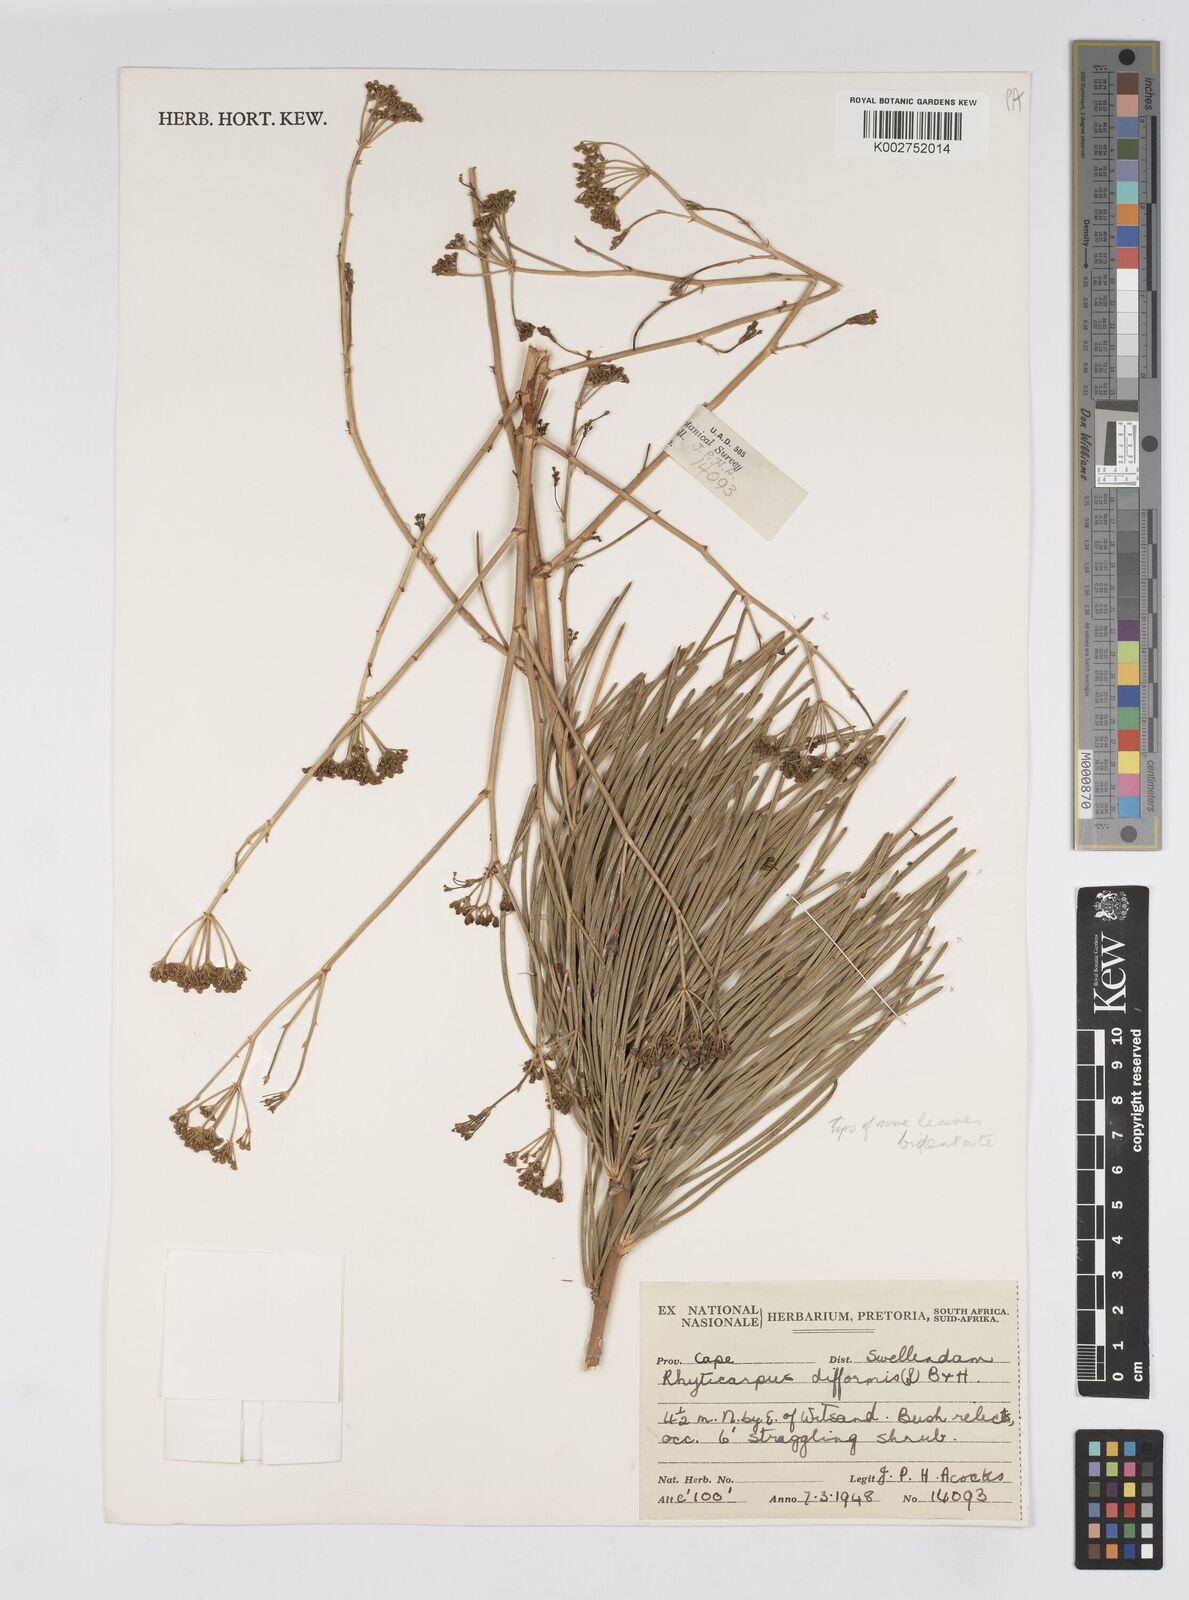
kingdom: Plantae
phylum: Tracheophyta
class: Magnoliopsida
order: Apiales
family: Apiaceae
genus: Anginon
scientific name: Anginon difforme
